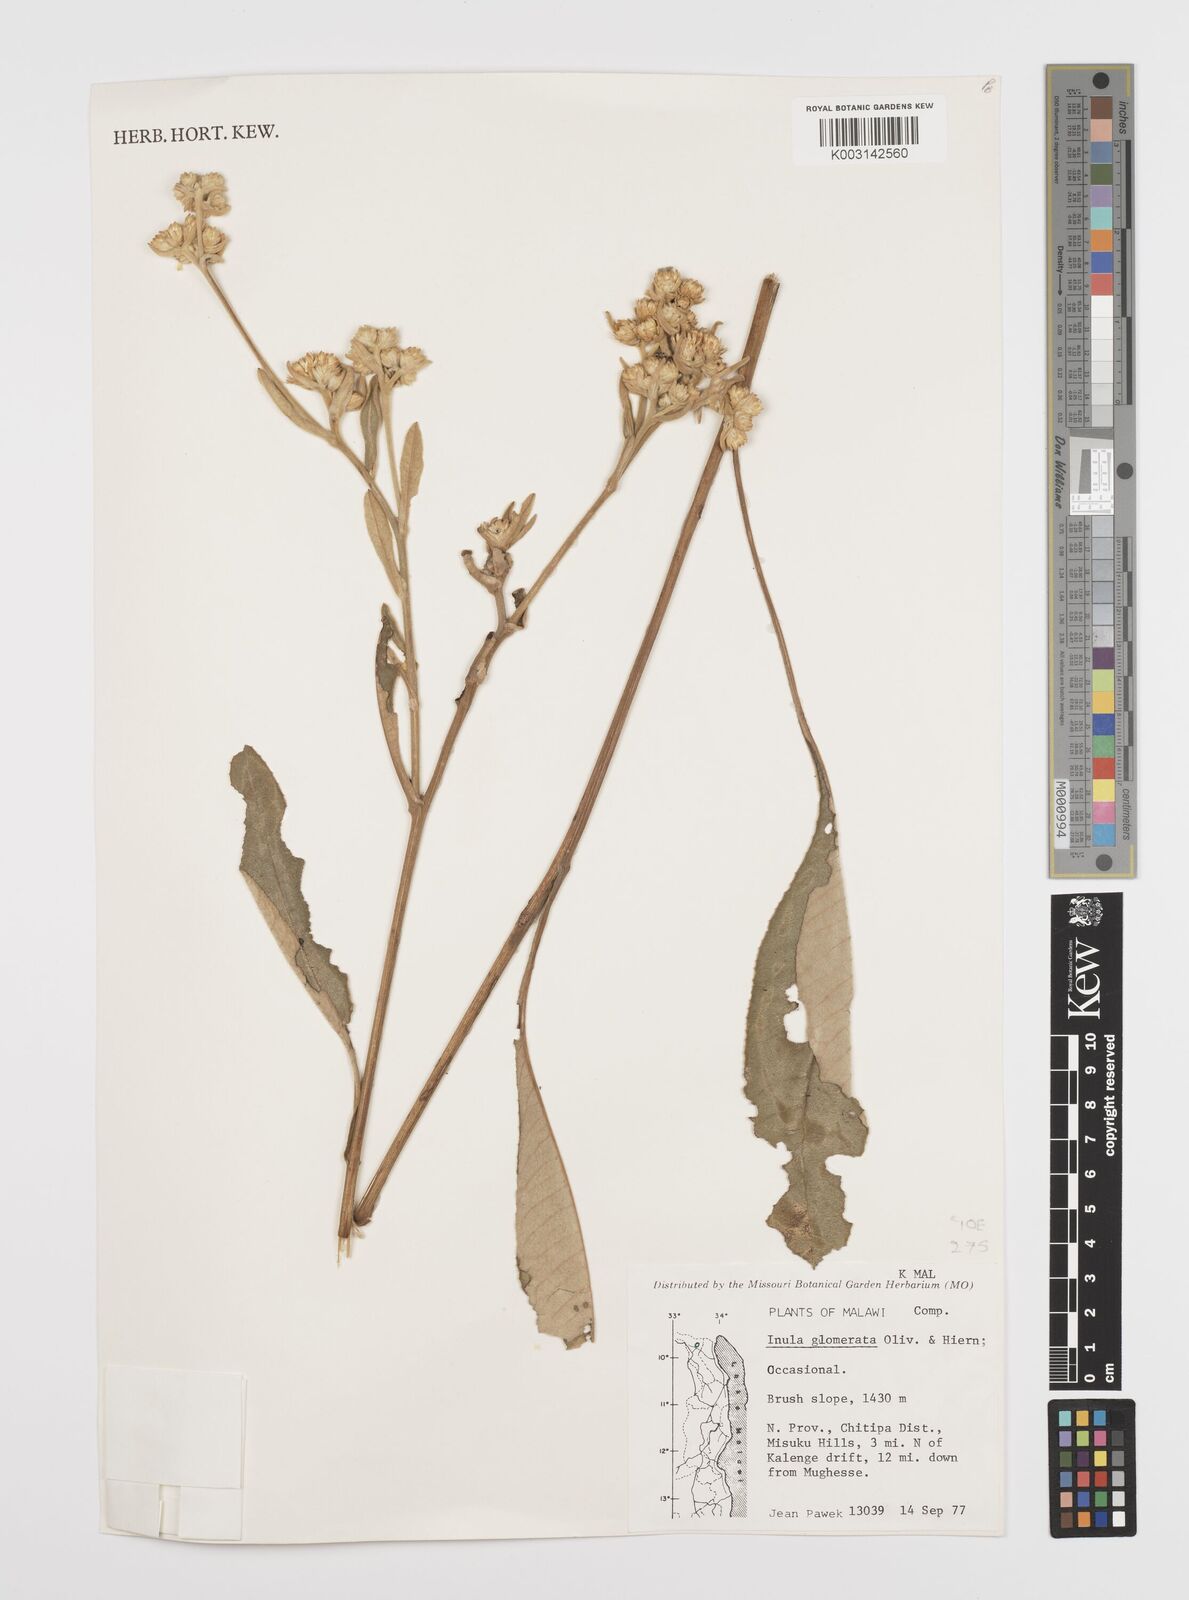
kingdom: Plantae
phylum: Tracheophyta
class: Magnoliopsida
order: Asterales
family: Asteraceae
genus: Inula
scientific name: Inula glomerata
